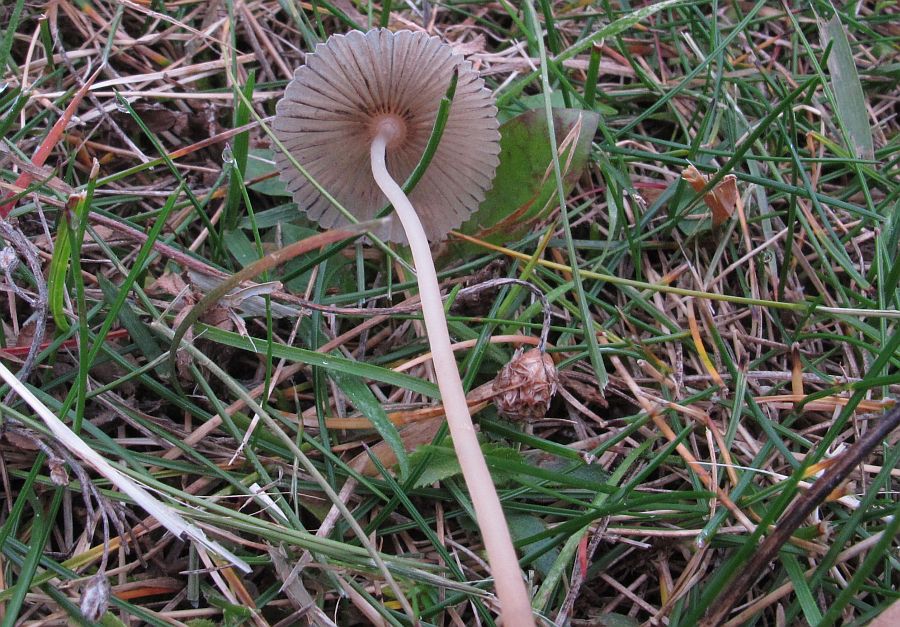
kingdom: Fungi
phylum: Basidiomycota
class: Agaricomycetes
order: Agaricales
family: Psathyrellaceae
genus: Parasola
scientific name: Parasola plicatilis
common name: plæne-hjulhat
